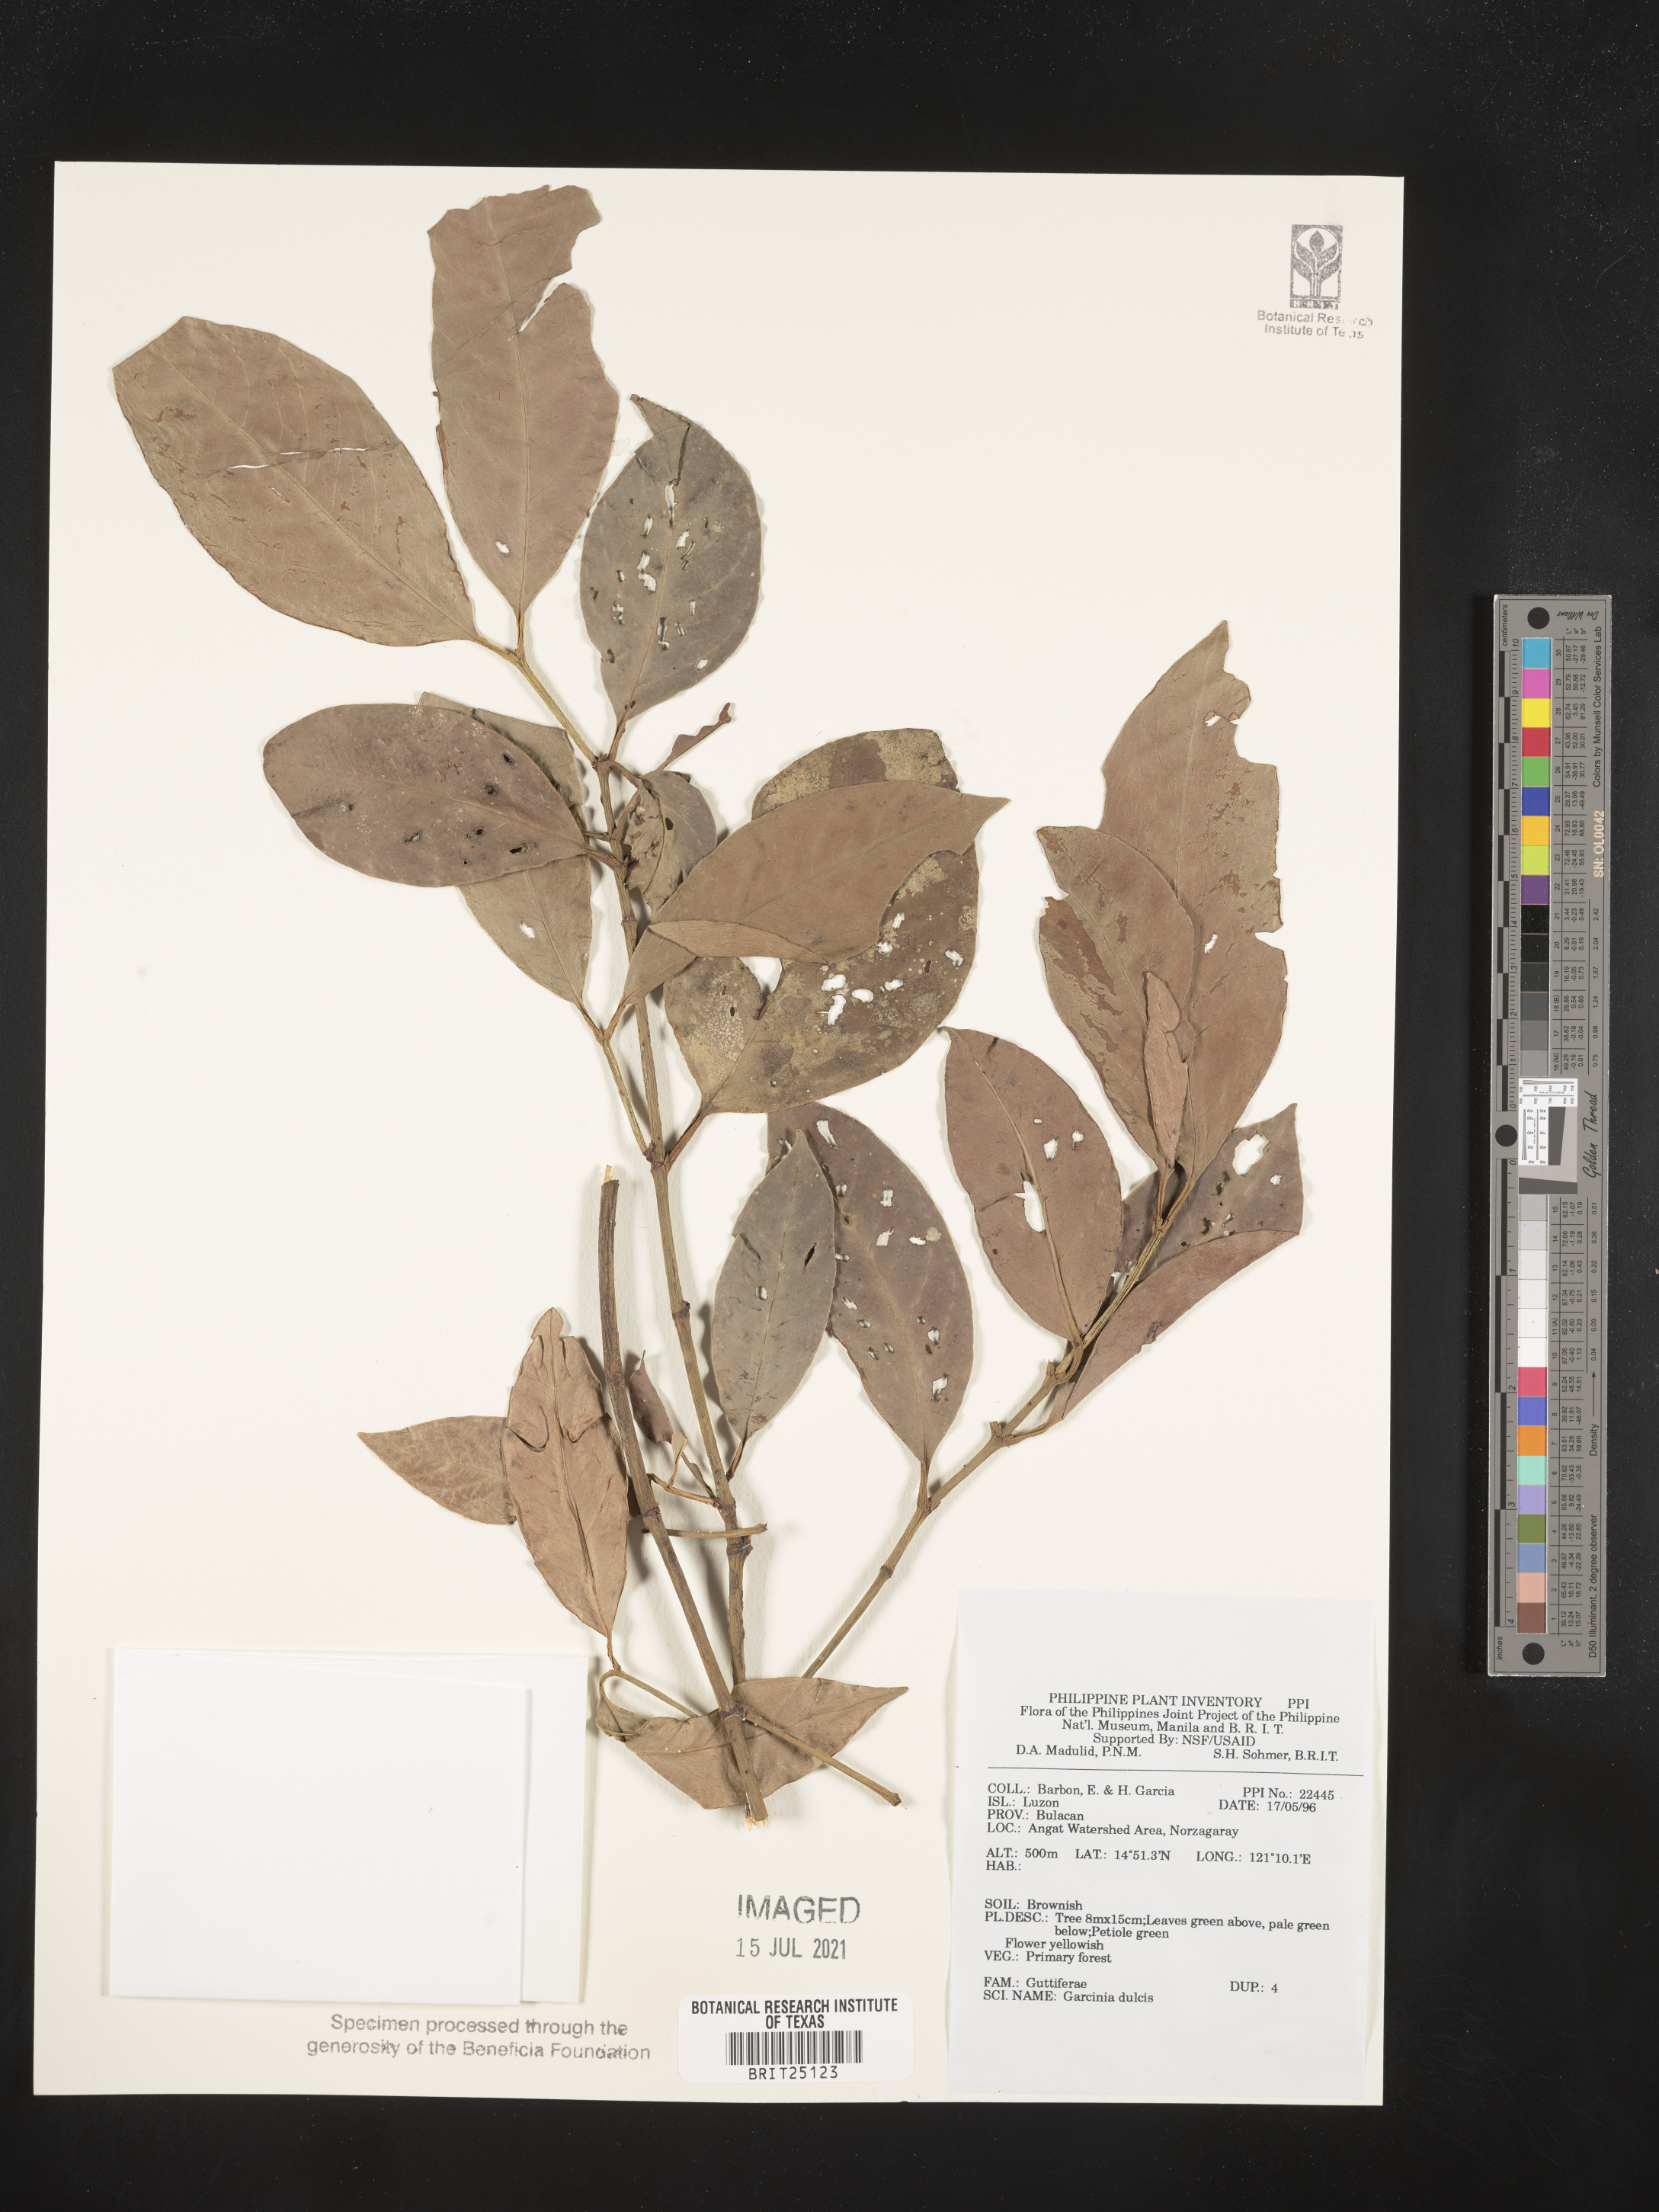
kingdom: Plantae
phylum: Tracheophyta
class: Magnoliopsida
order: Malpighiales
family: Clusiaceae
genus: Garcinia
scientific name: Garcinia dulcis
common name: Eggtree
